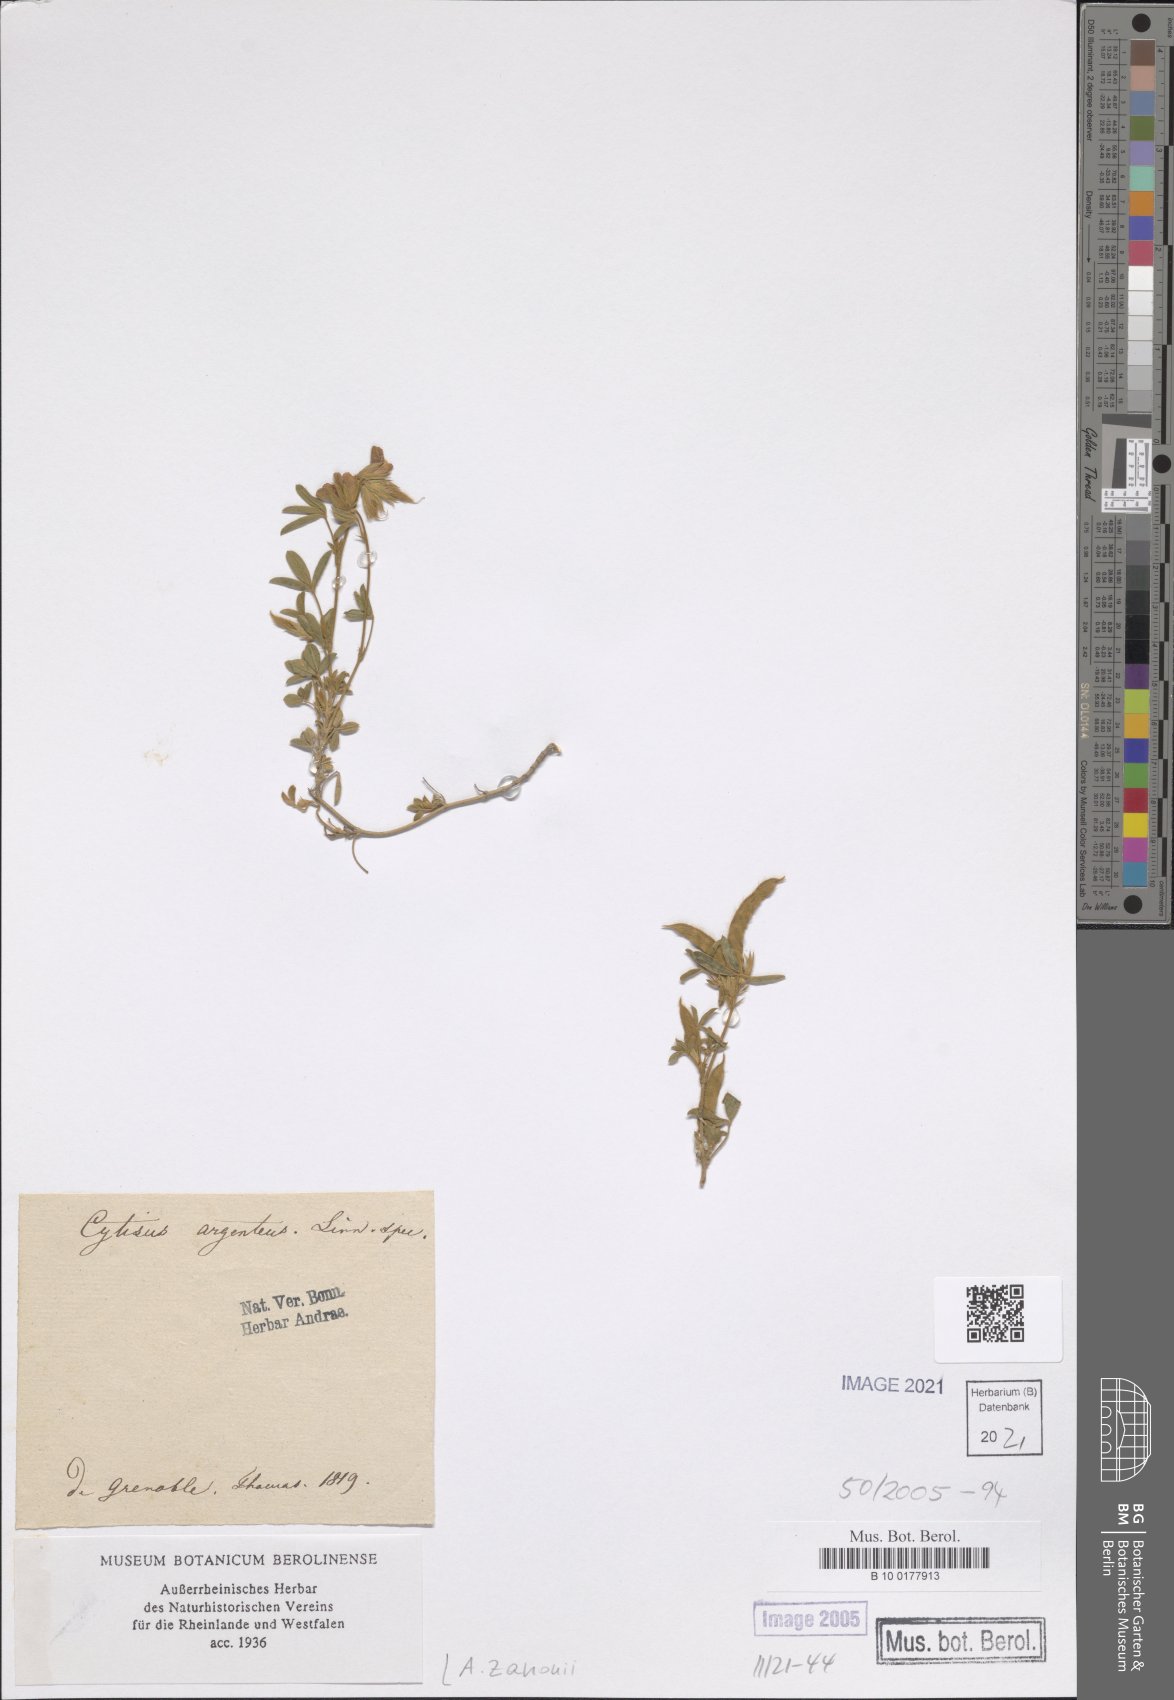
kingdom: Plantae
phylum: Tracheophyta
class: Magnoliopsida
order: Fabales
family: Fabaceae
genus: Argyrolobium
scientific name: Argyrolobium zanonii
